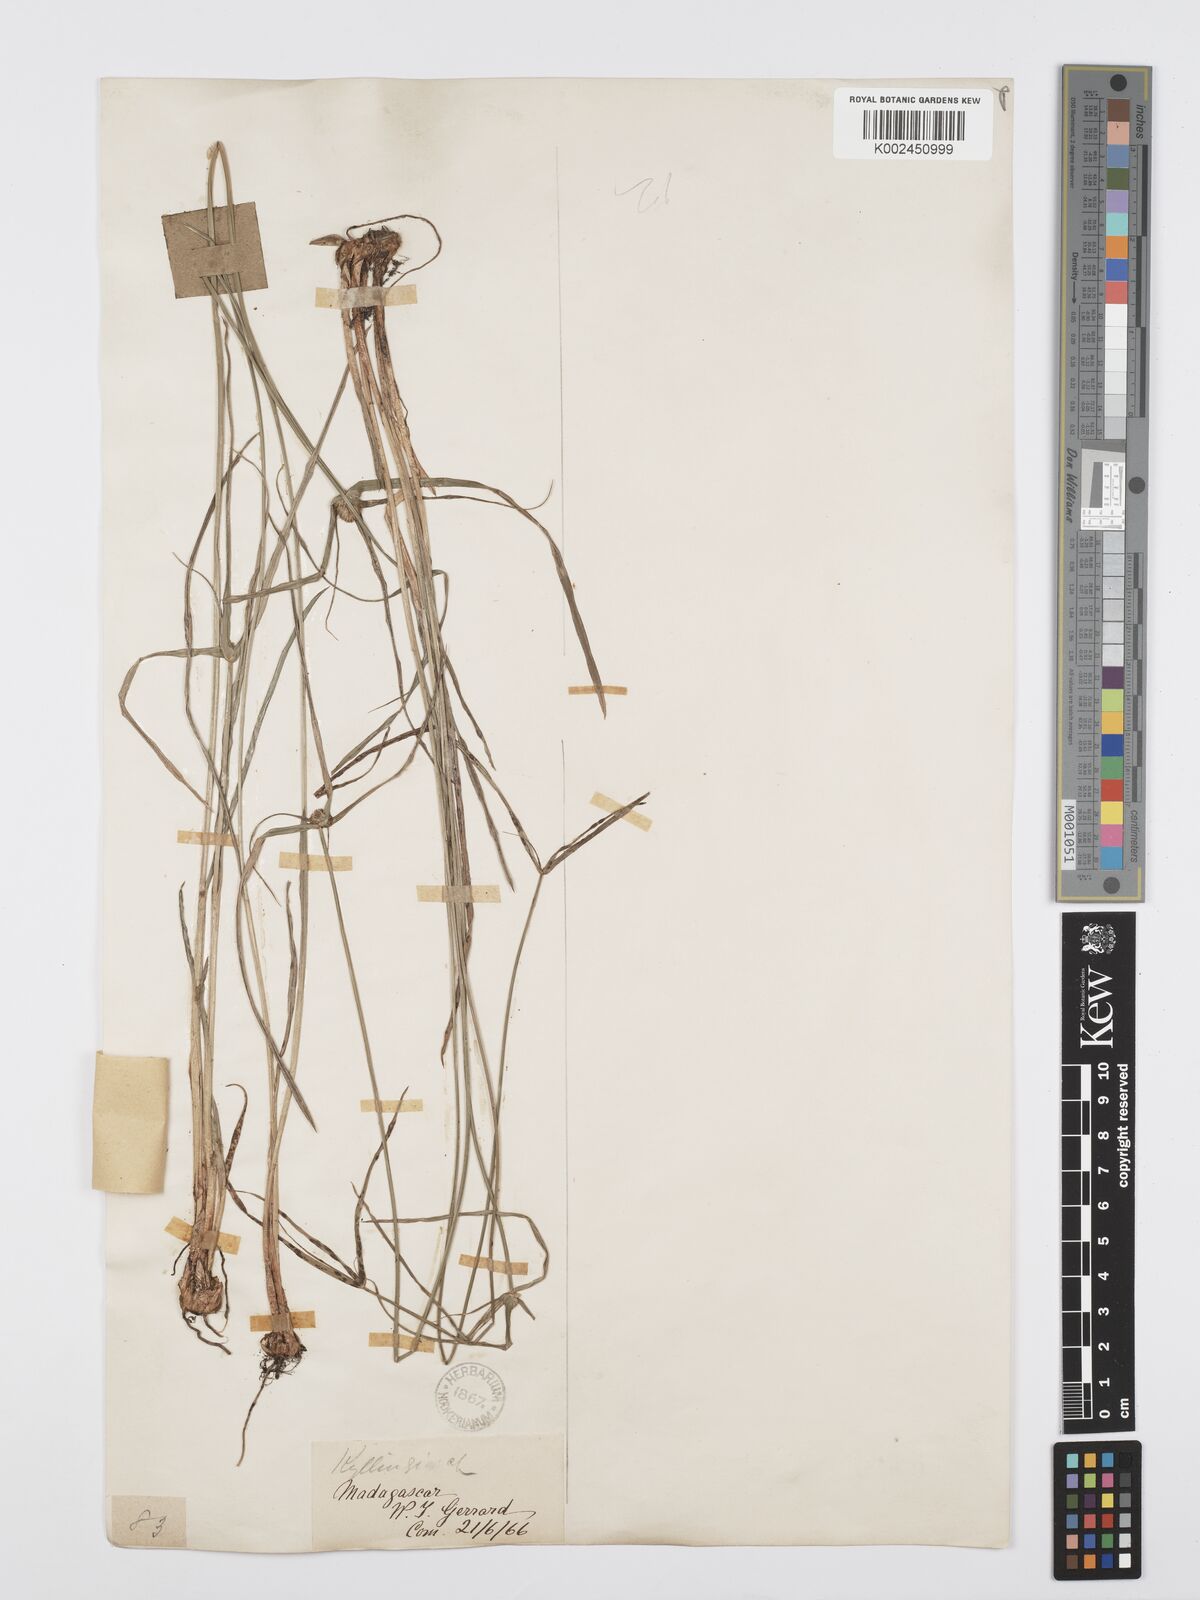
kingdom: Plantae
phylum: Tracheophyta
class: Liliopsida
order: Poales
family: Cyperaceae
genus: Cyperus
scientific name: Cyperus
